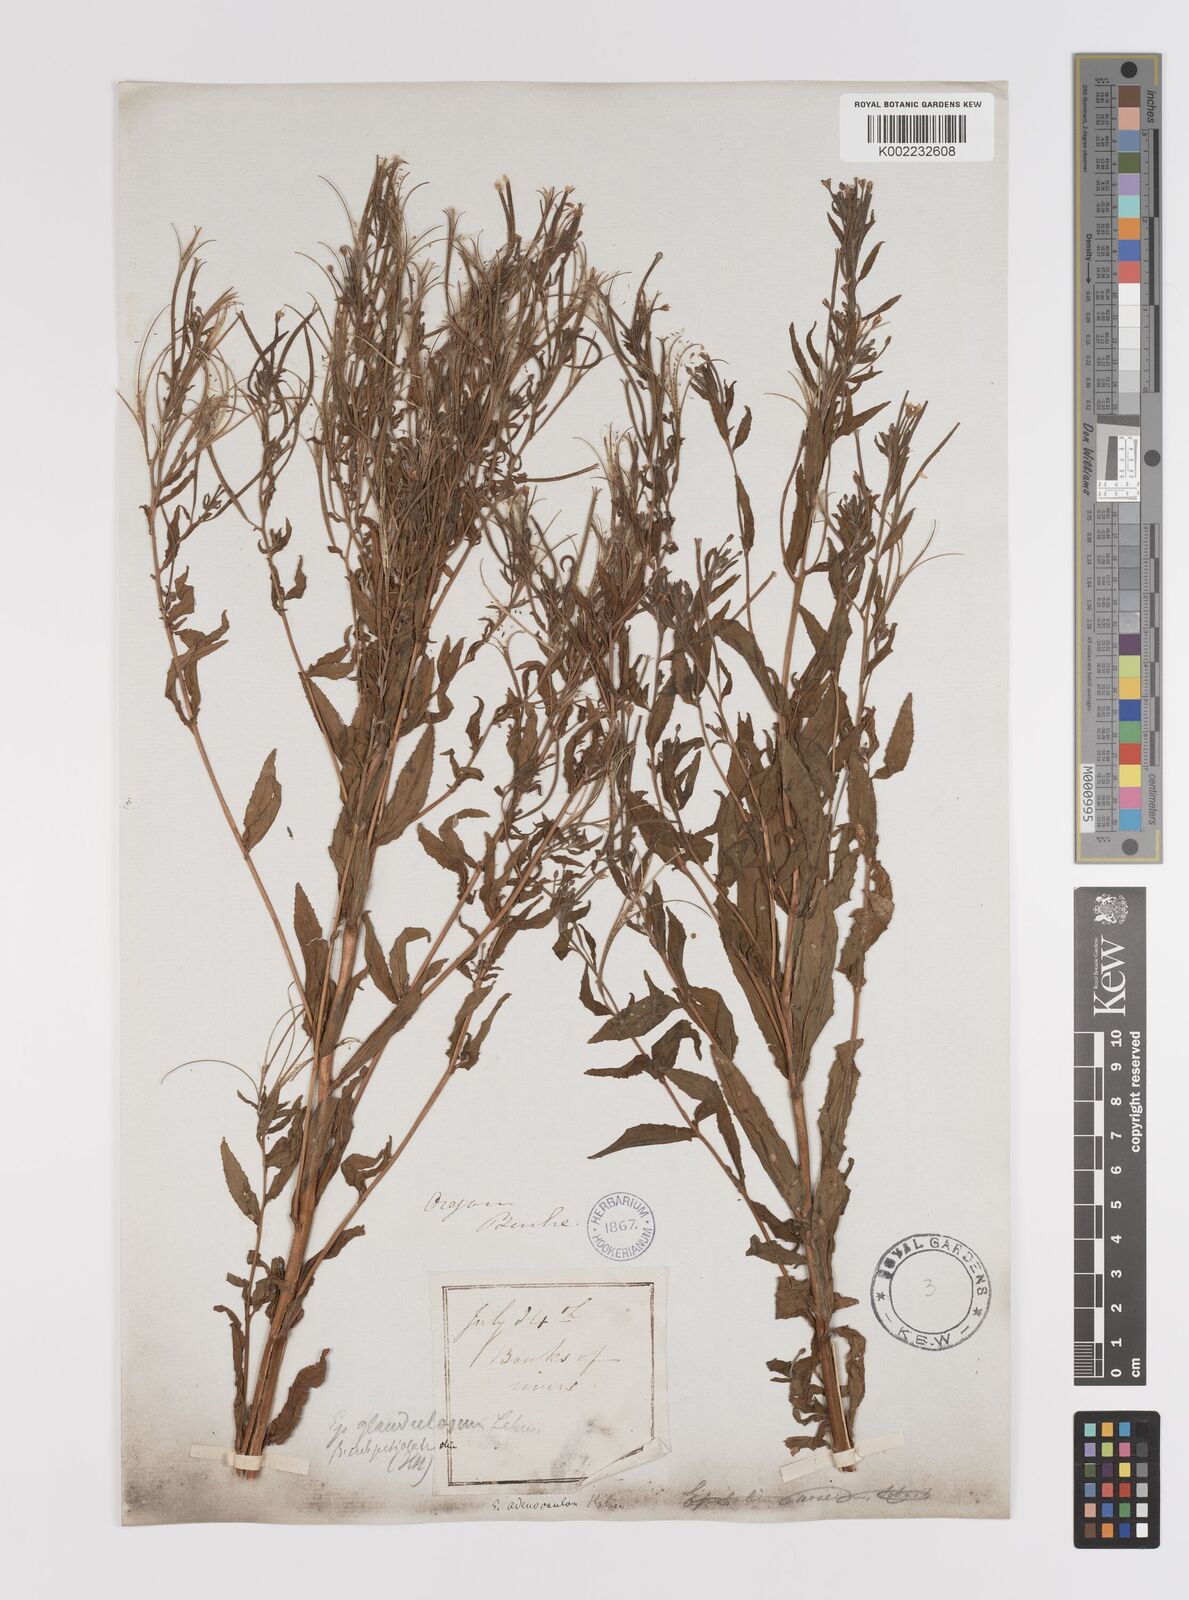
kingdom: Plantae
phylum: Tracheophyta
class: Magnoliopsida
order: Myrtales
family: Onagraceae
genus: Epilobium
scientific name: Epilobium ciliatum
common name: American willowherb
